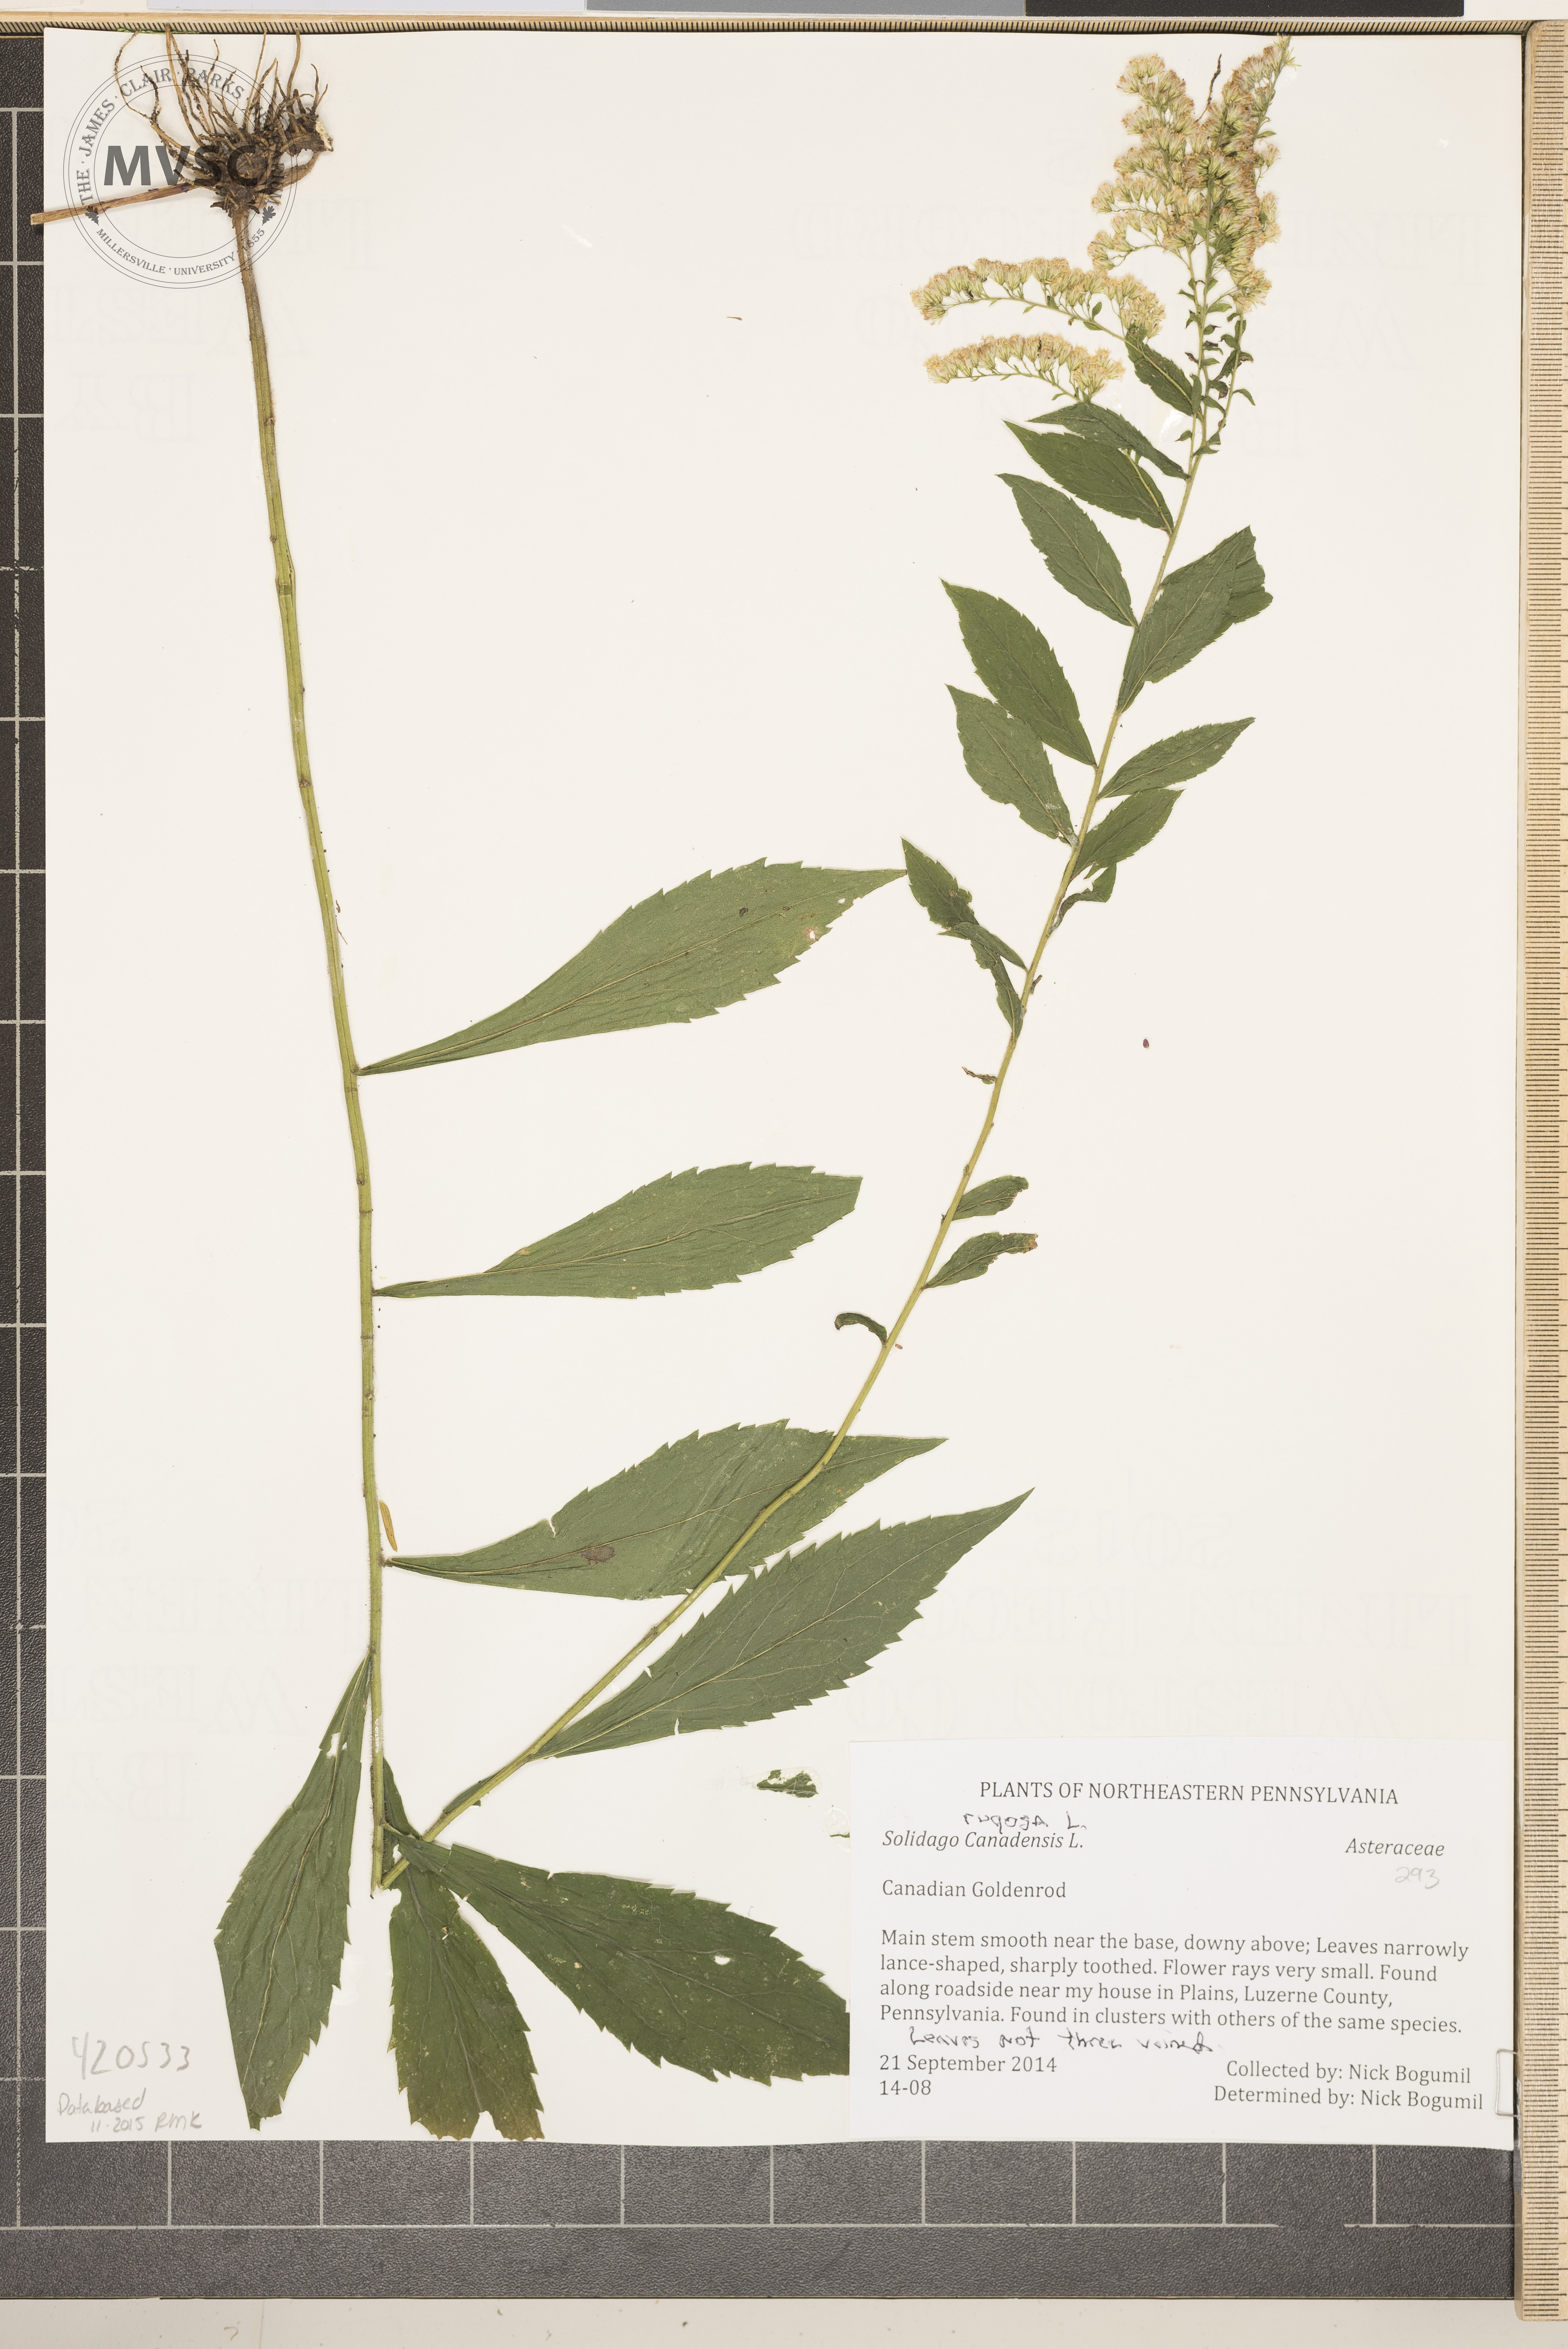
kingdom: Plantae
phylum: Tracheophyta
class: Magnoliopsida
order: Asterales
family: Asteraceae
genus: Solidago
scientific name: Solidago rugosa
